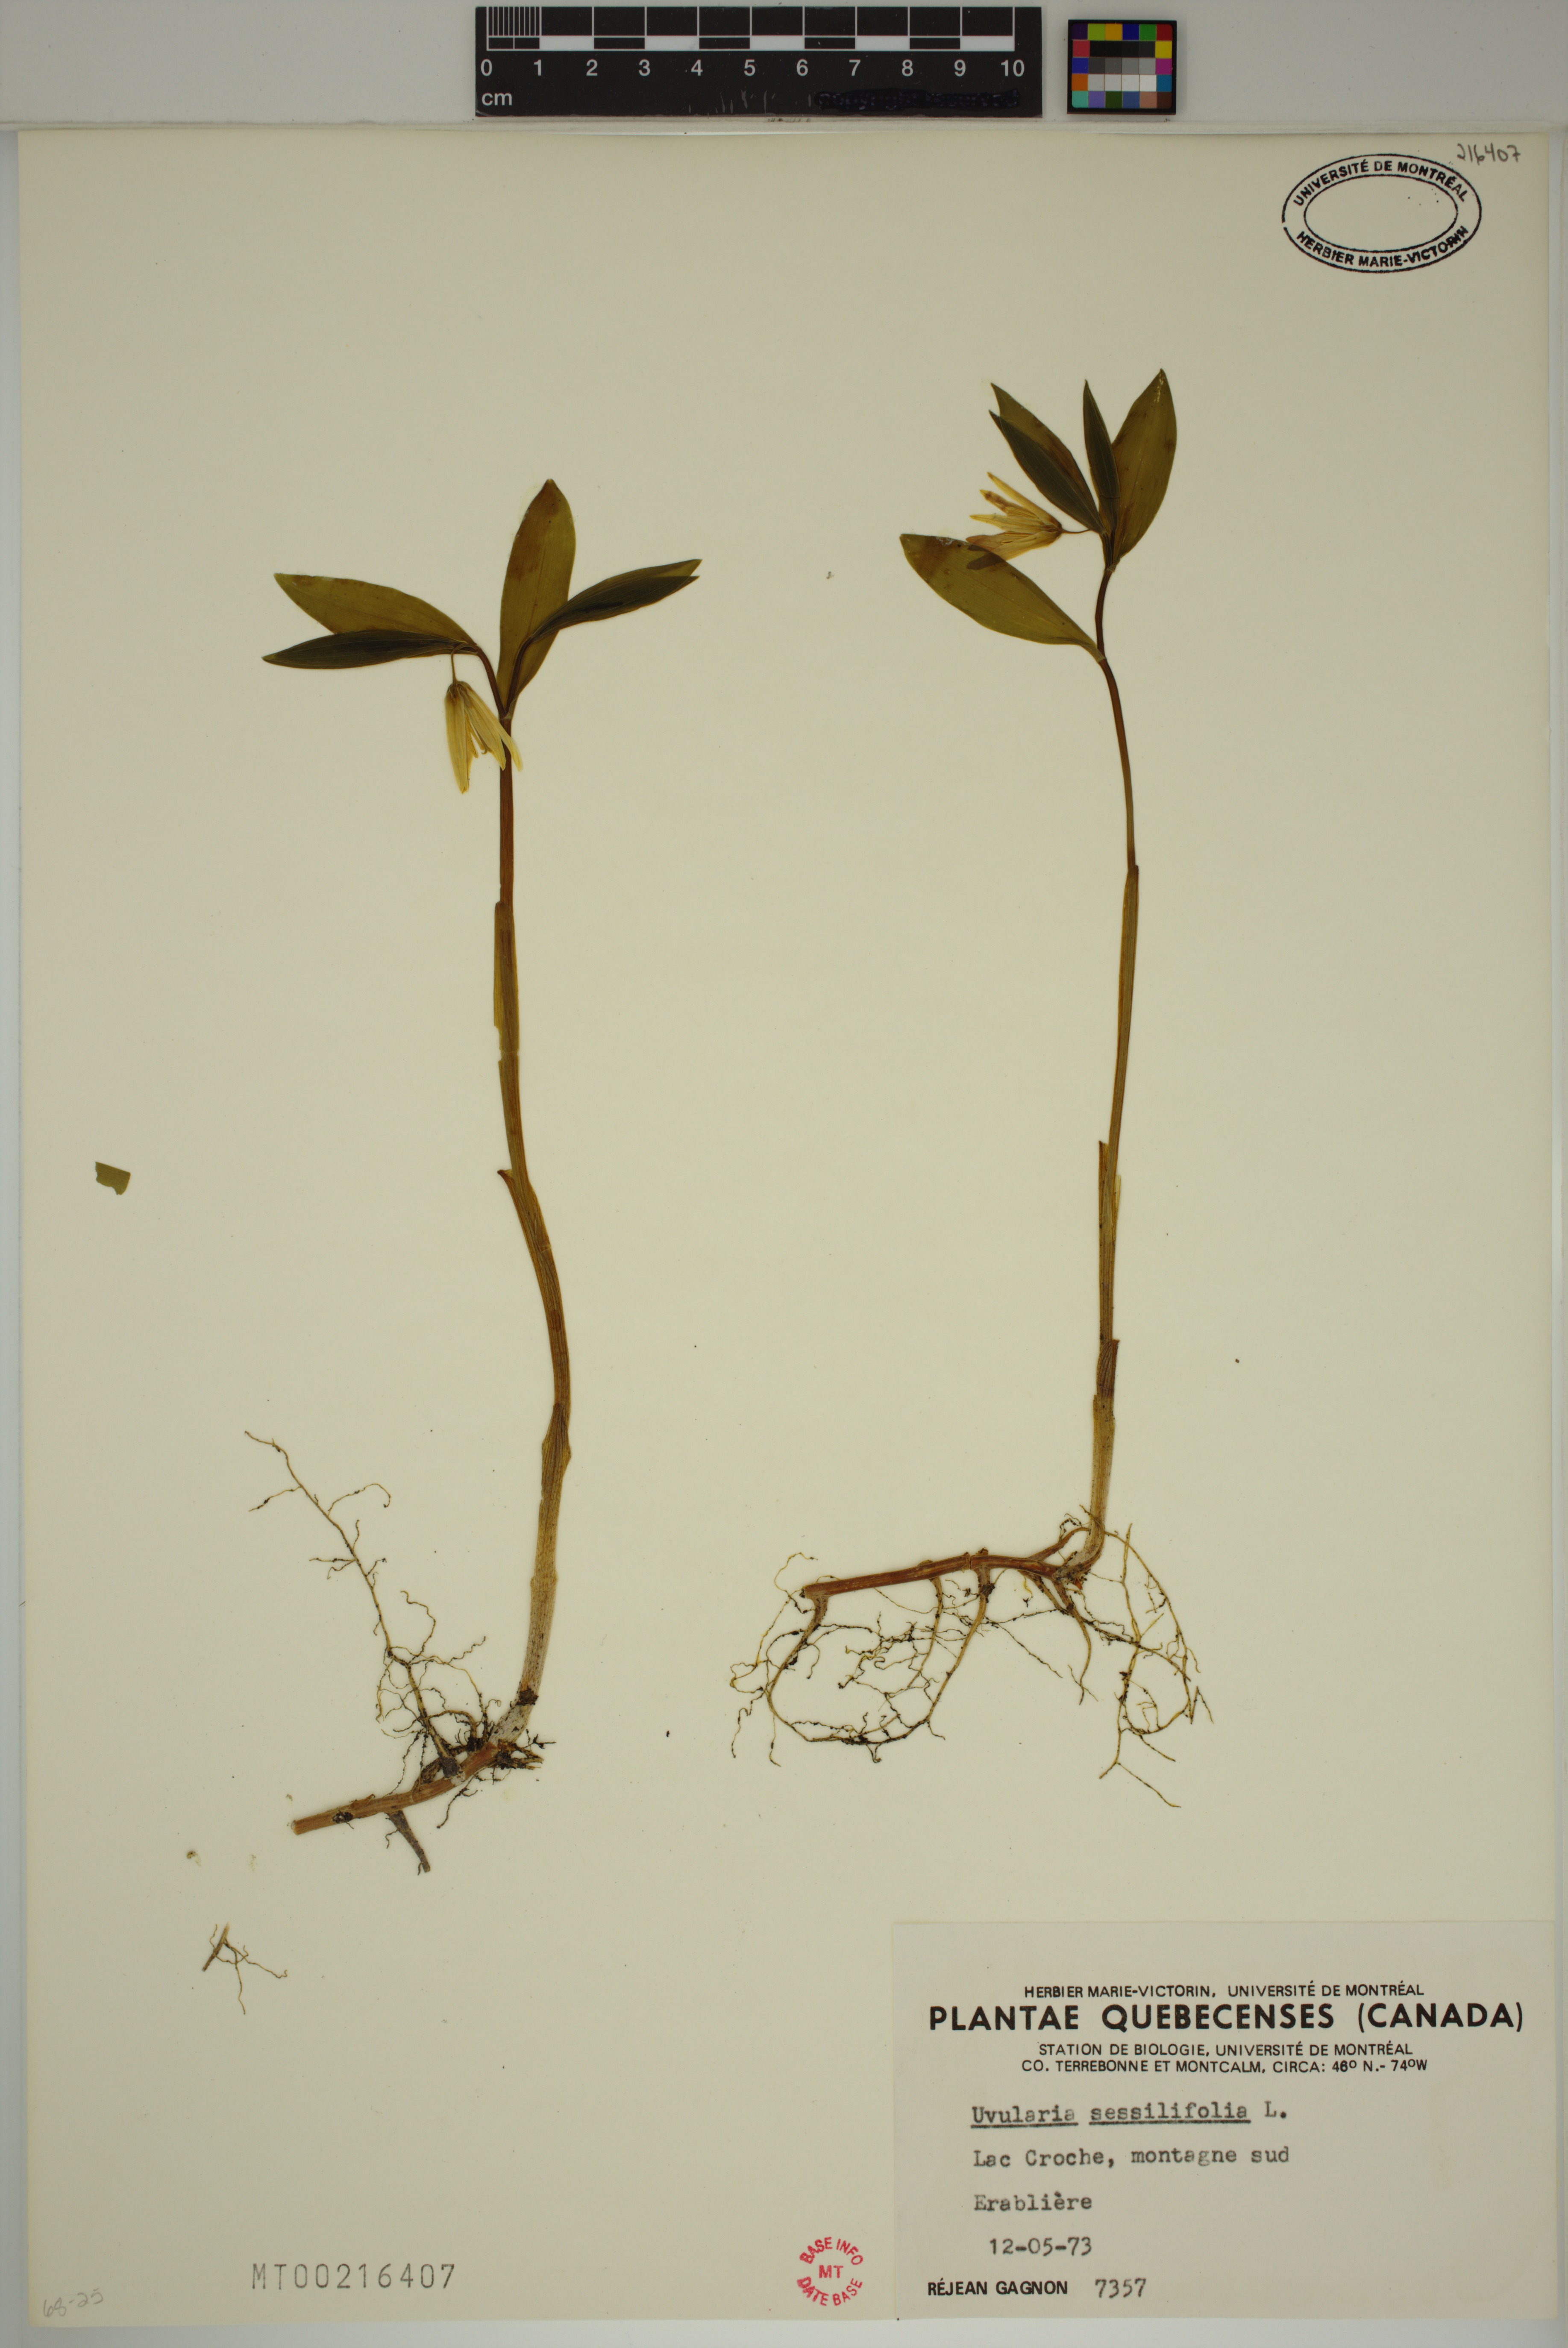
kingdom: Plantae
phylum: Tracheophyta
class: Liliopsida
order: Liliales
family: Colchicaceae
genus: Uvularia
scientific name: Uvularia sessilifolia
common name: Straw-lily
